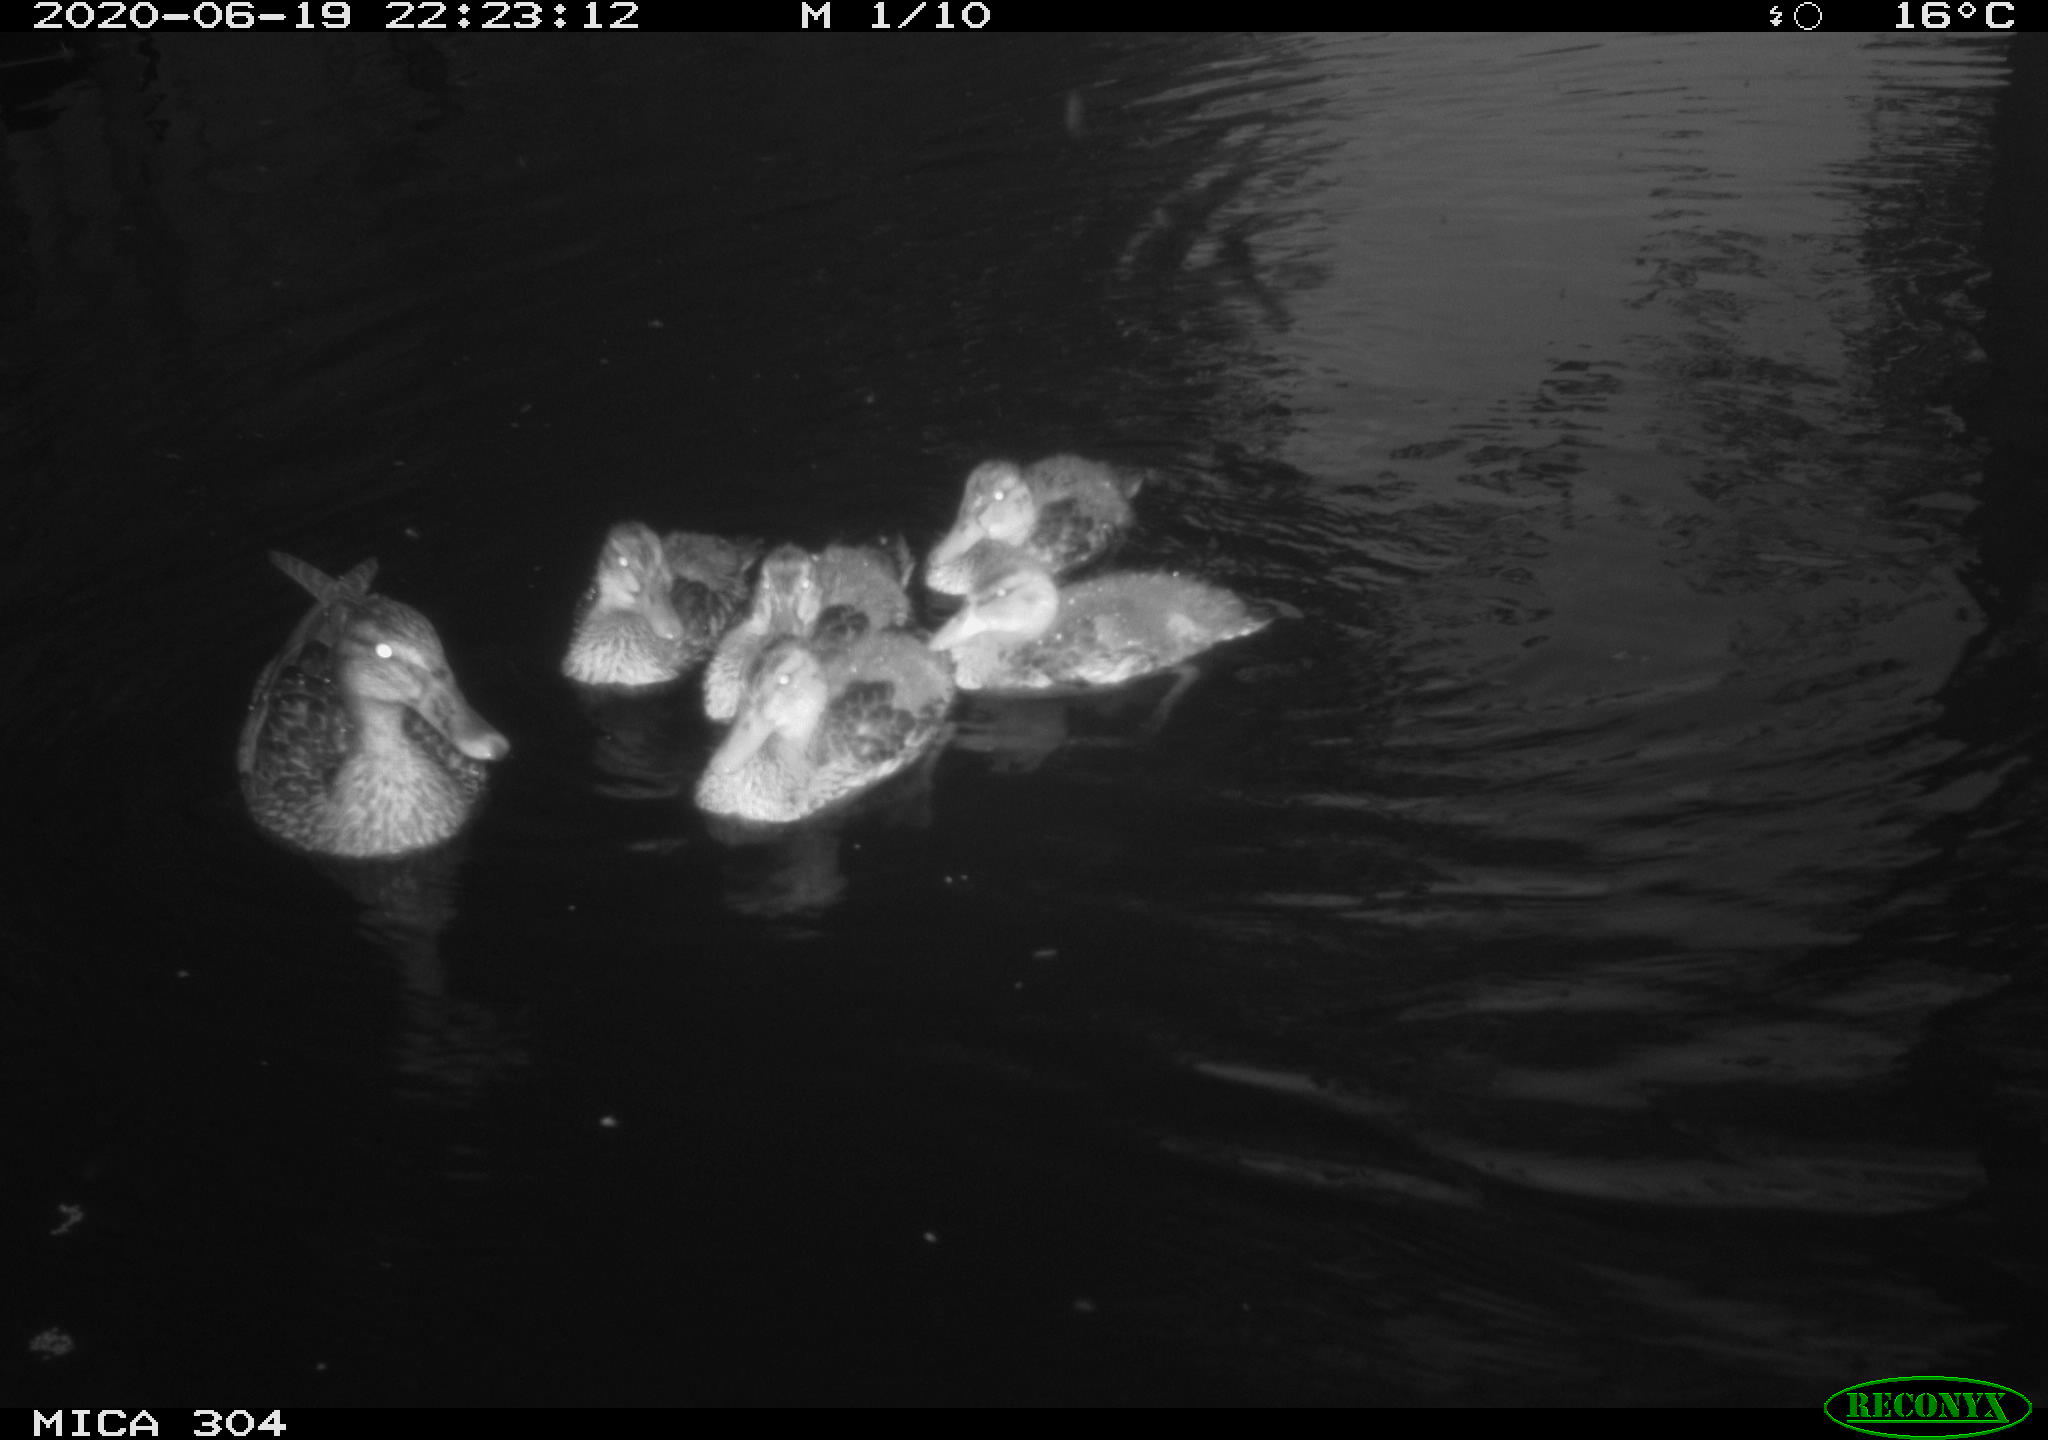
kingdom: Animalia
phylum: Chordata
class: Aves
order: Anseriformes
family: Anatidae
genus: Anas
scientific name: Anas platyrhynchos
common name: Mallard
